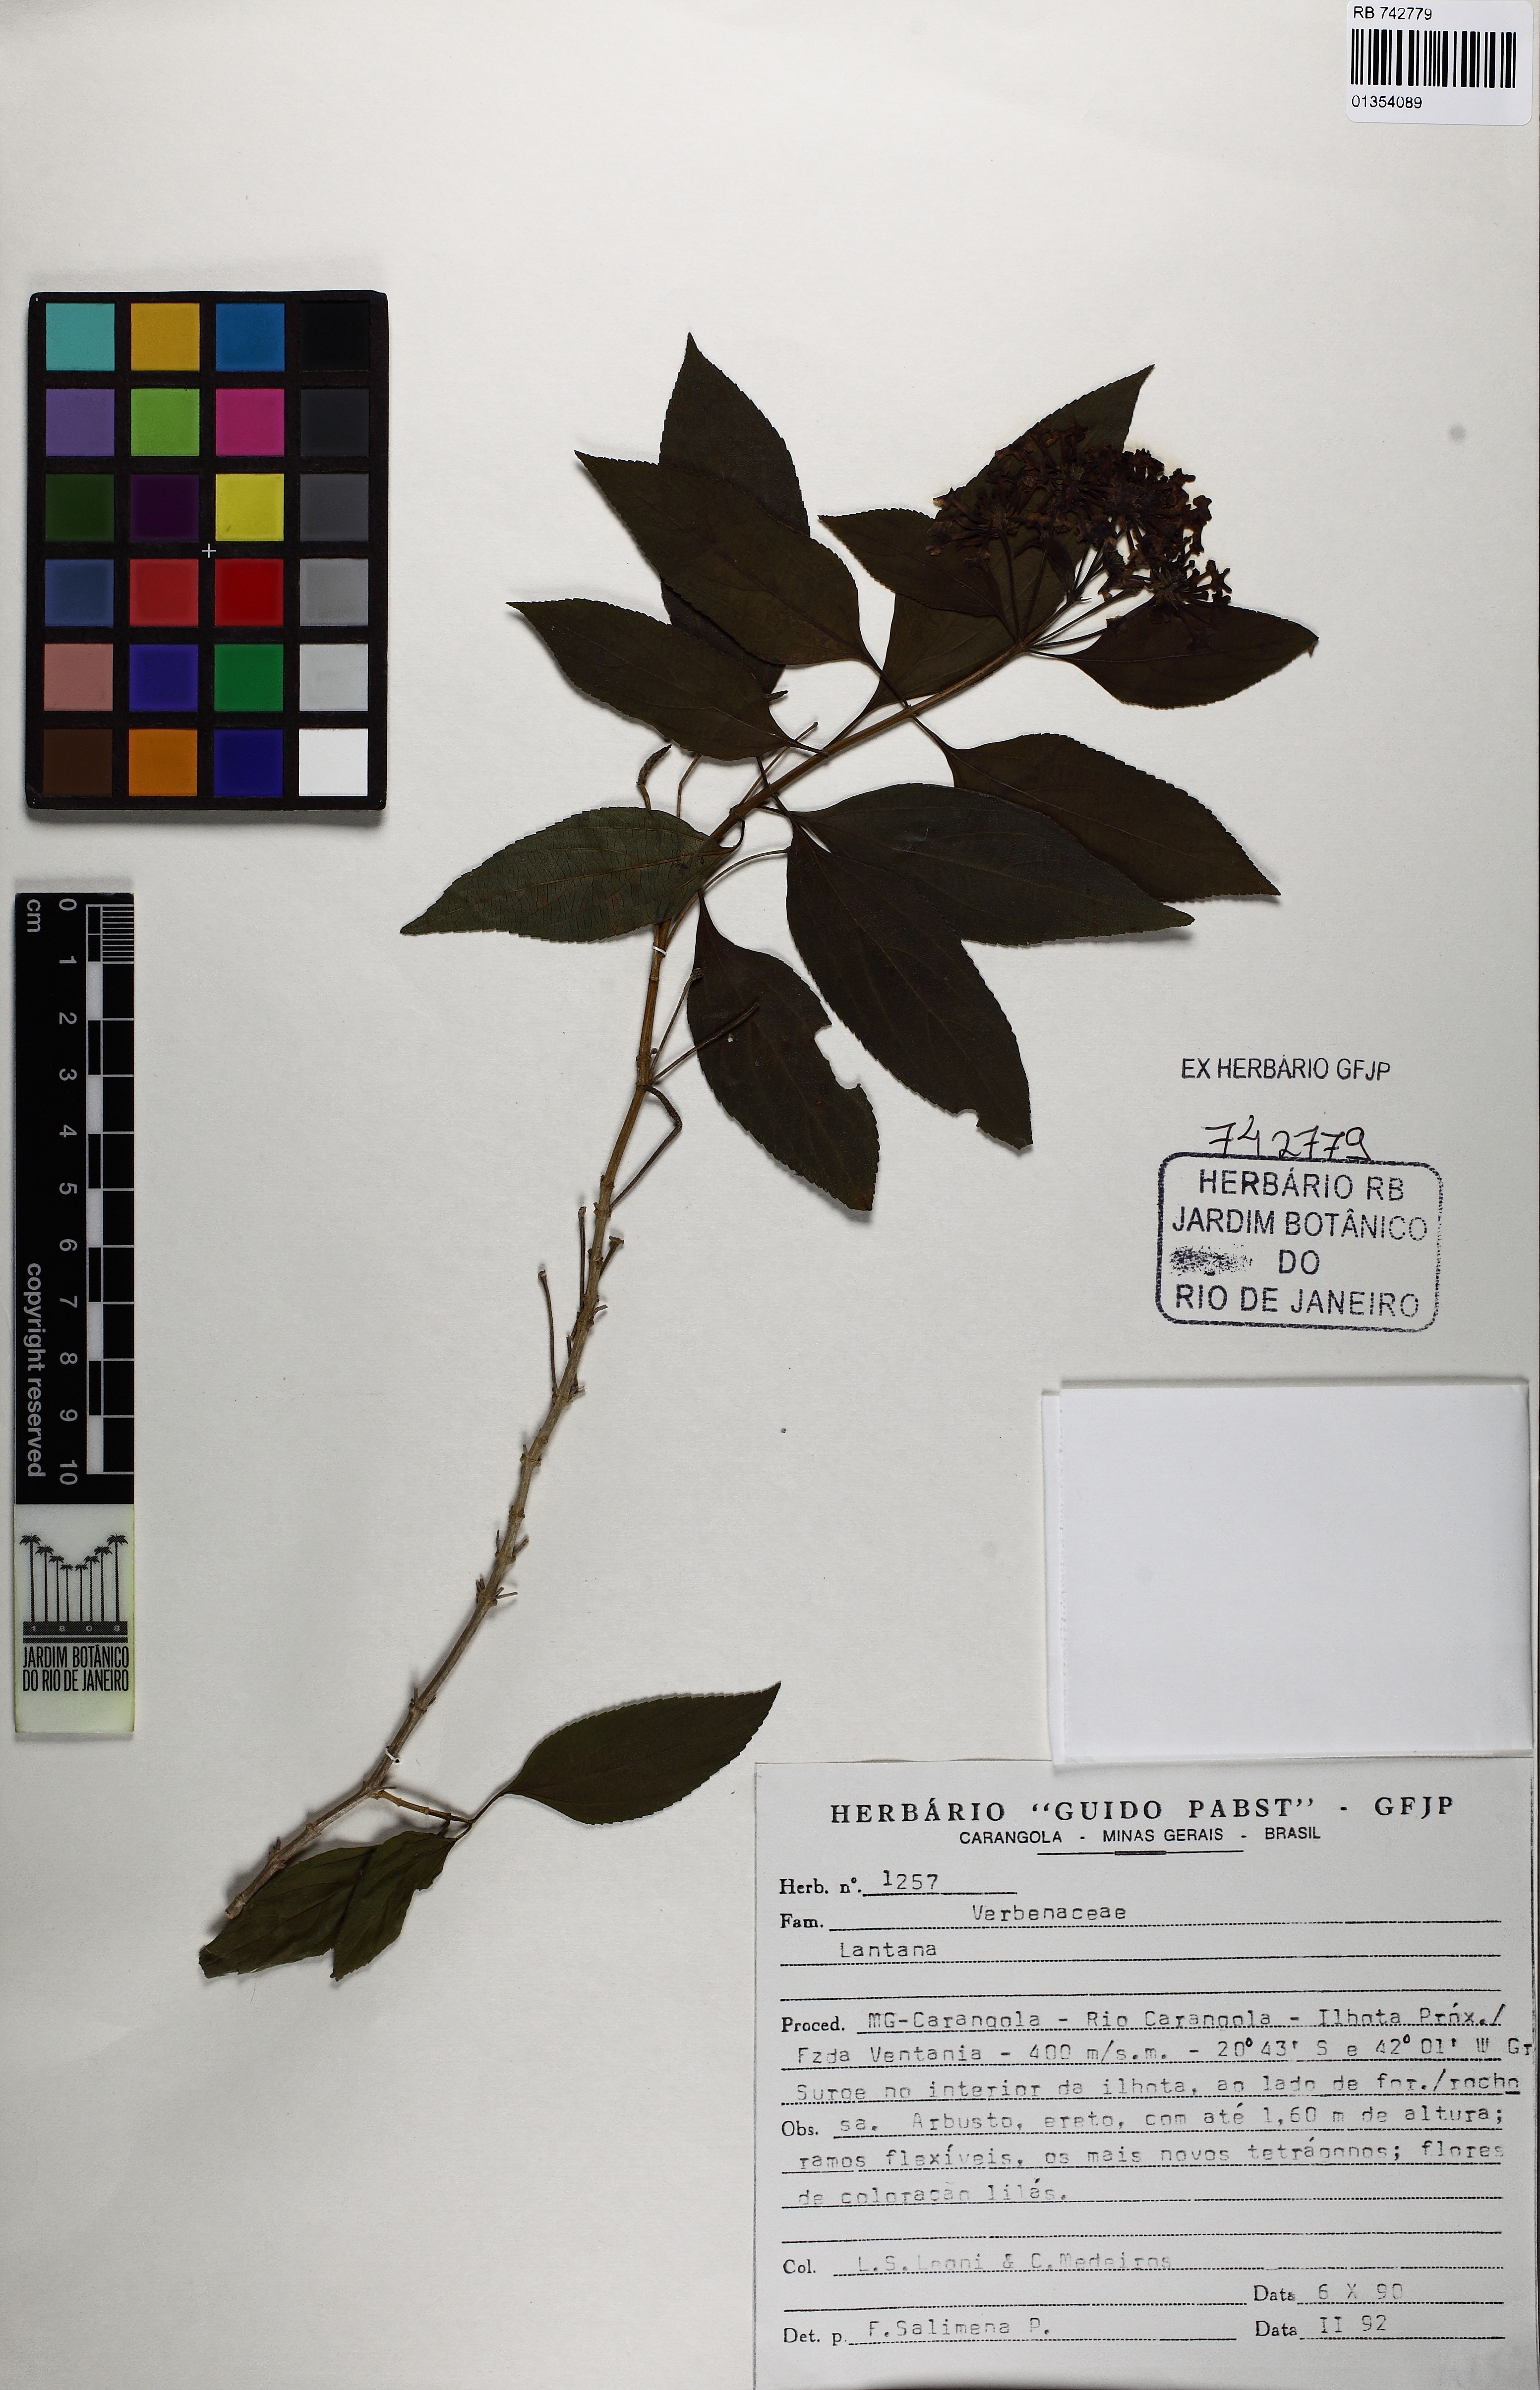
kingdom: Plantae
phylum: Tracheophyta
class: Magnoliopsida
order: Lamiales
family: Verbenaceae
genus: Lantana
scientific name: Lantana
